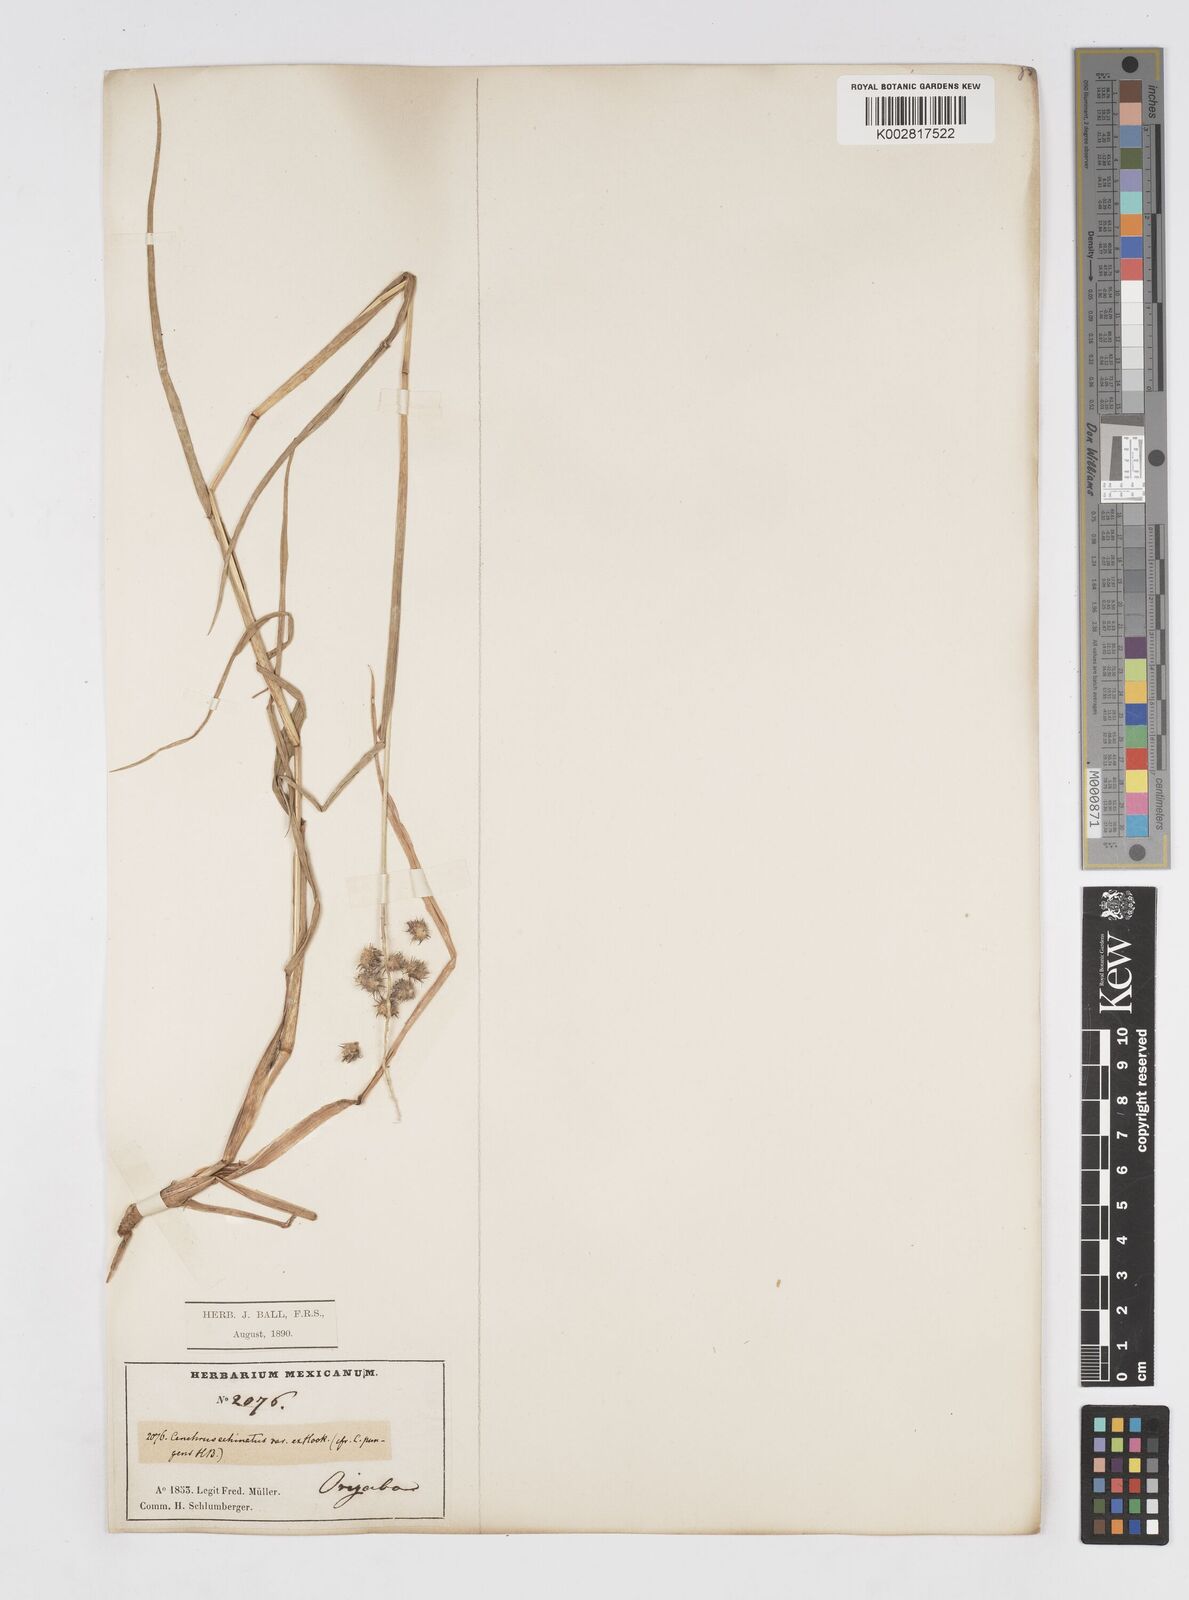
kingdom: Plantae
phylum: Tracheophyta
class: Liliopsida
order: Poales
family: Poaceae
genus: Cenchrus
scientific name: Cenchrus
